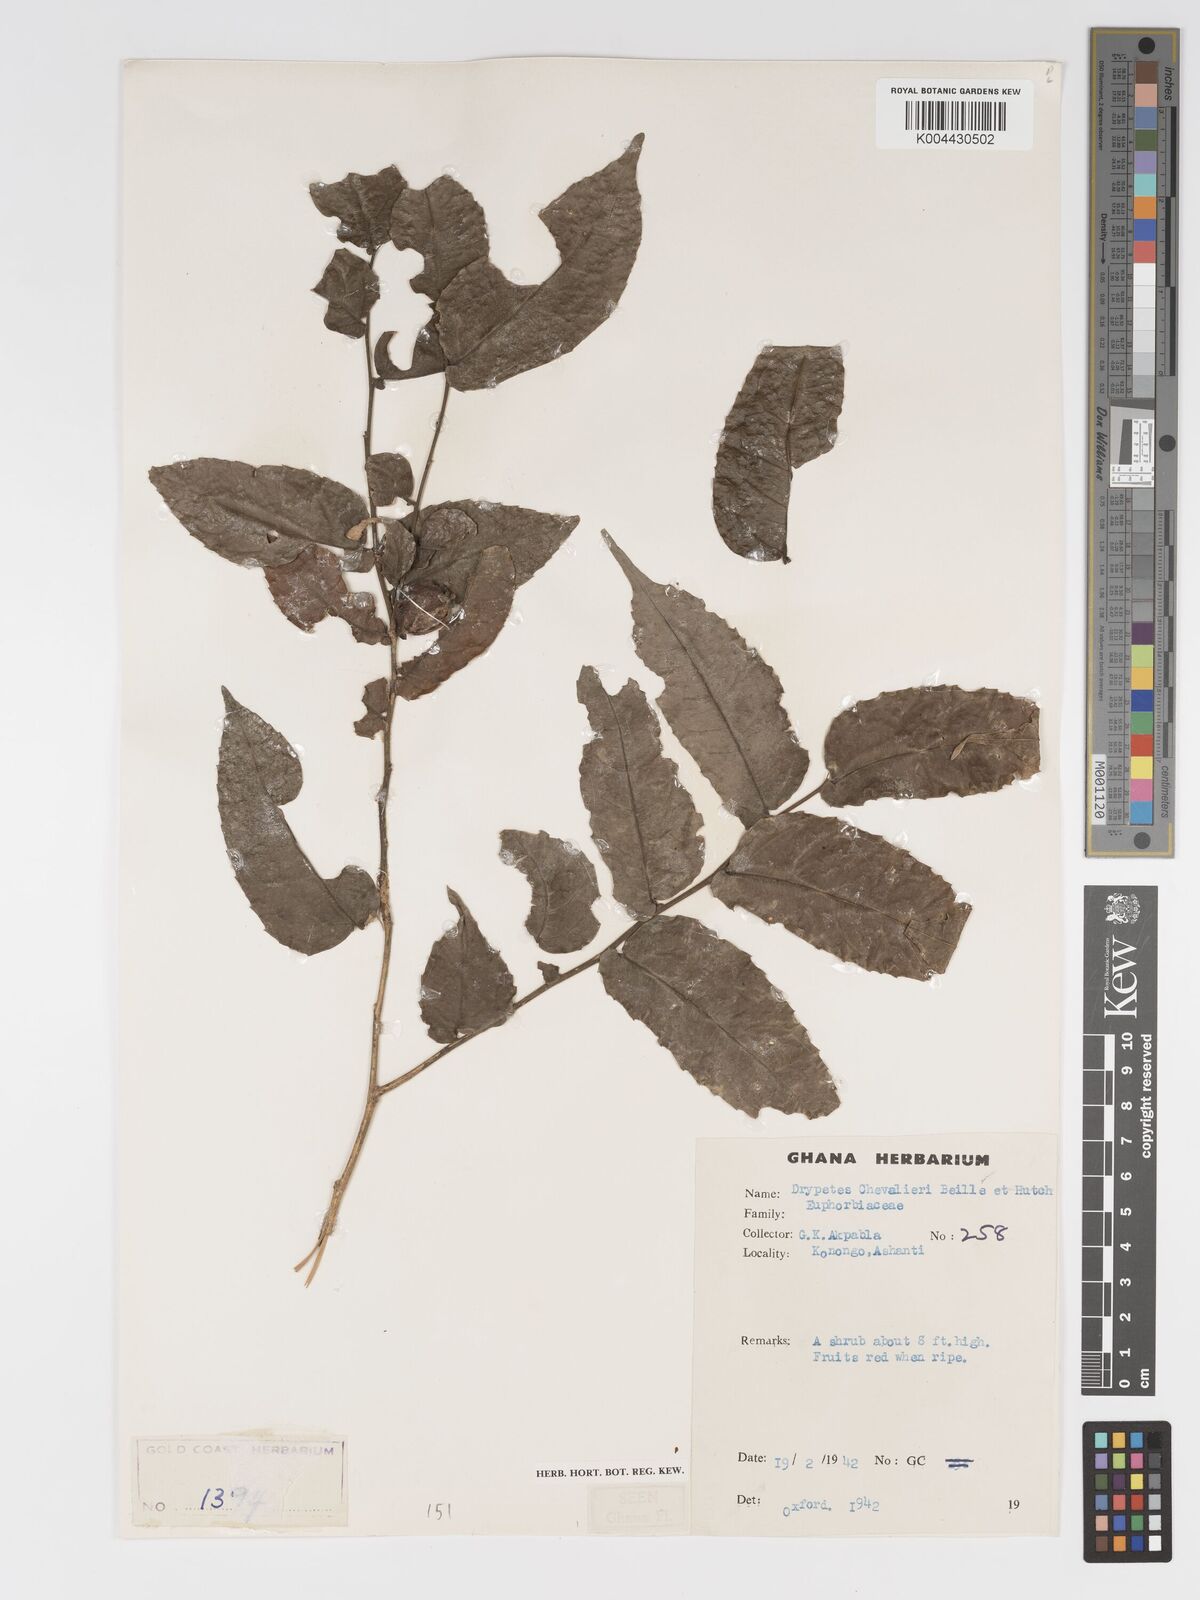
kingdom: Plantae
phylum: Tracheophyta
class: Magnoliopsida
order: Malpighiales
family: Putranjivaceae
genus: Drypetes
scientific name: Drypetes chevalieri
